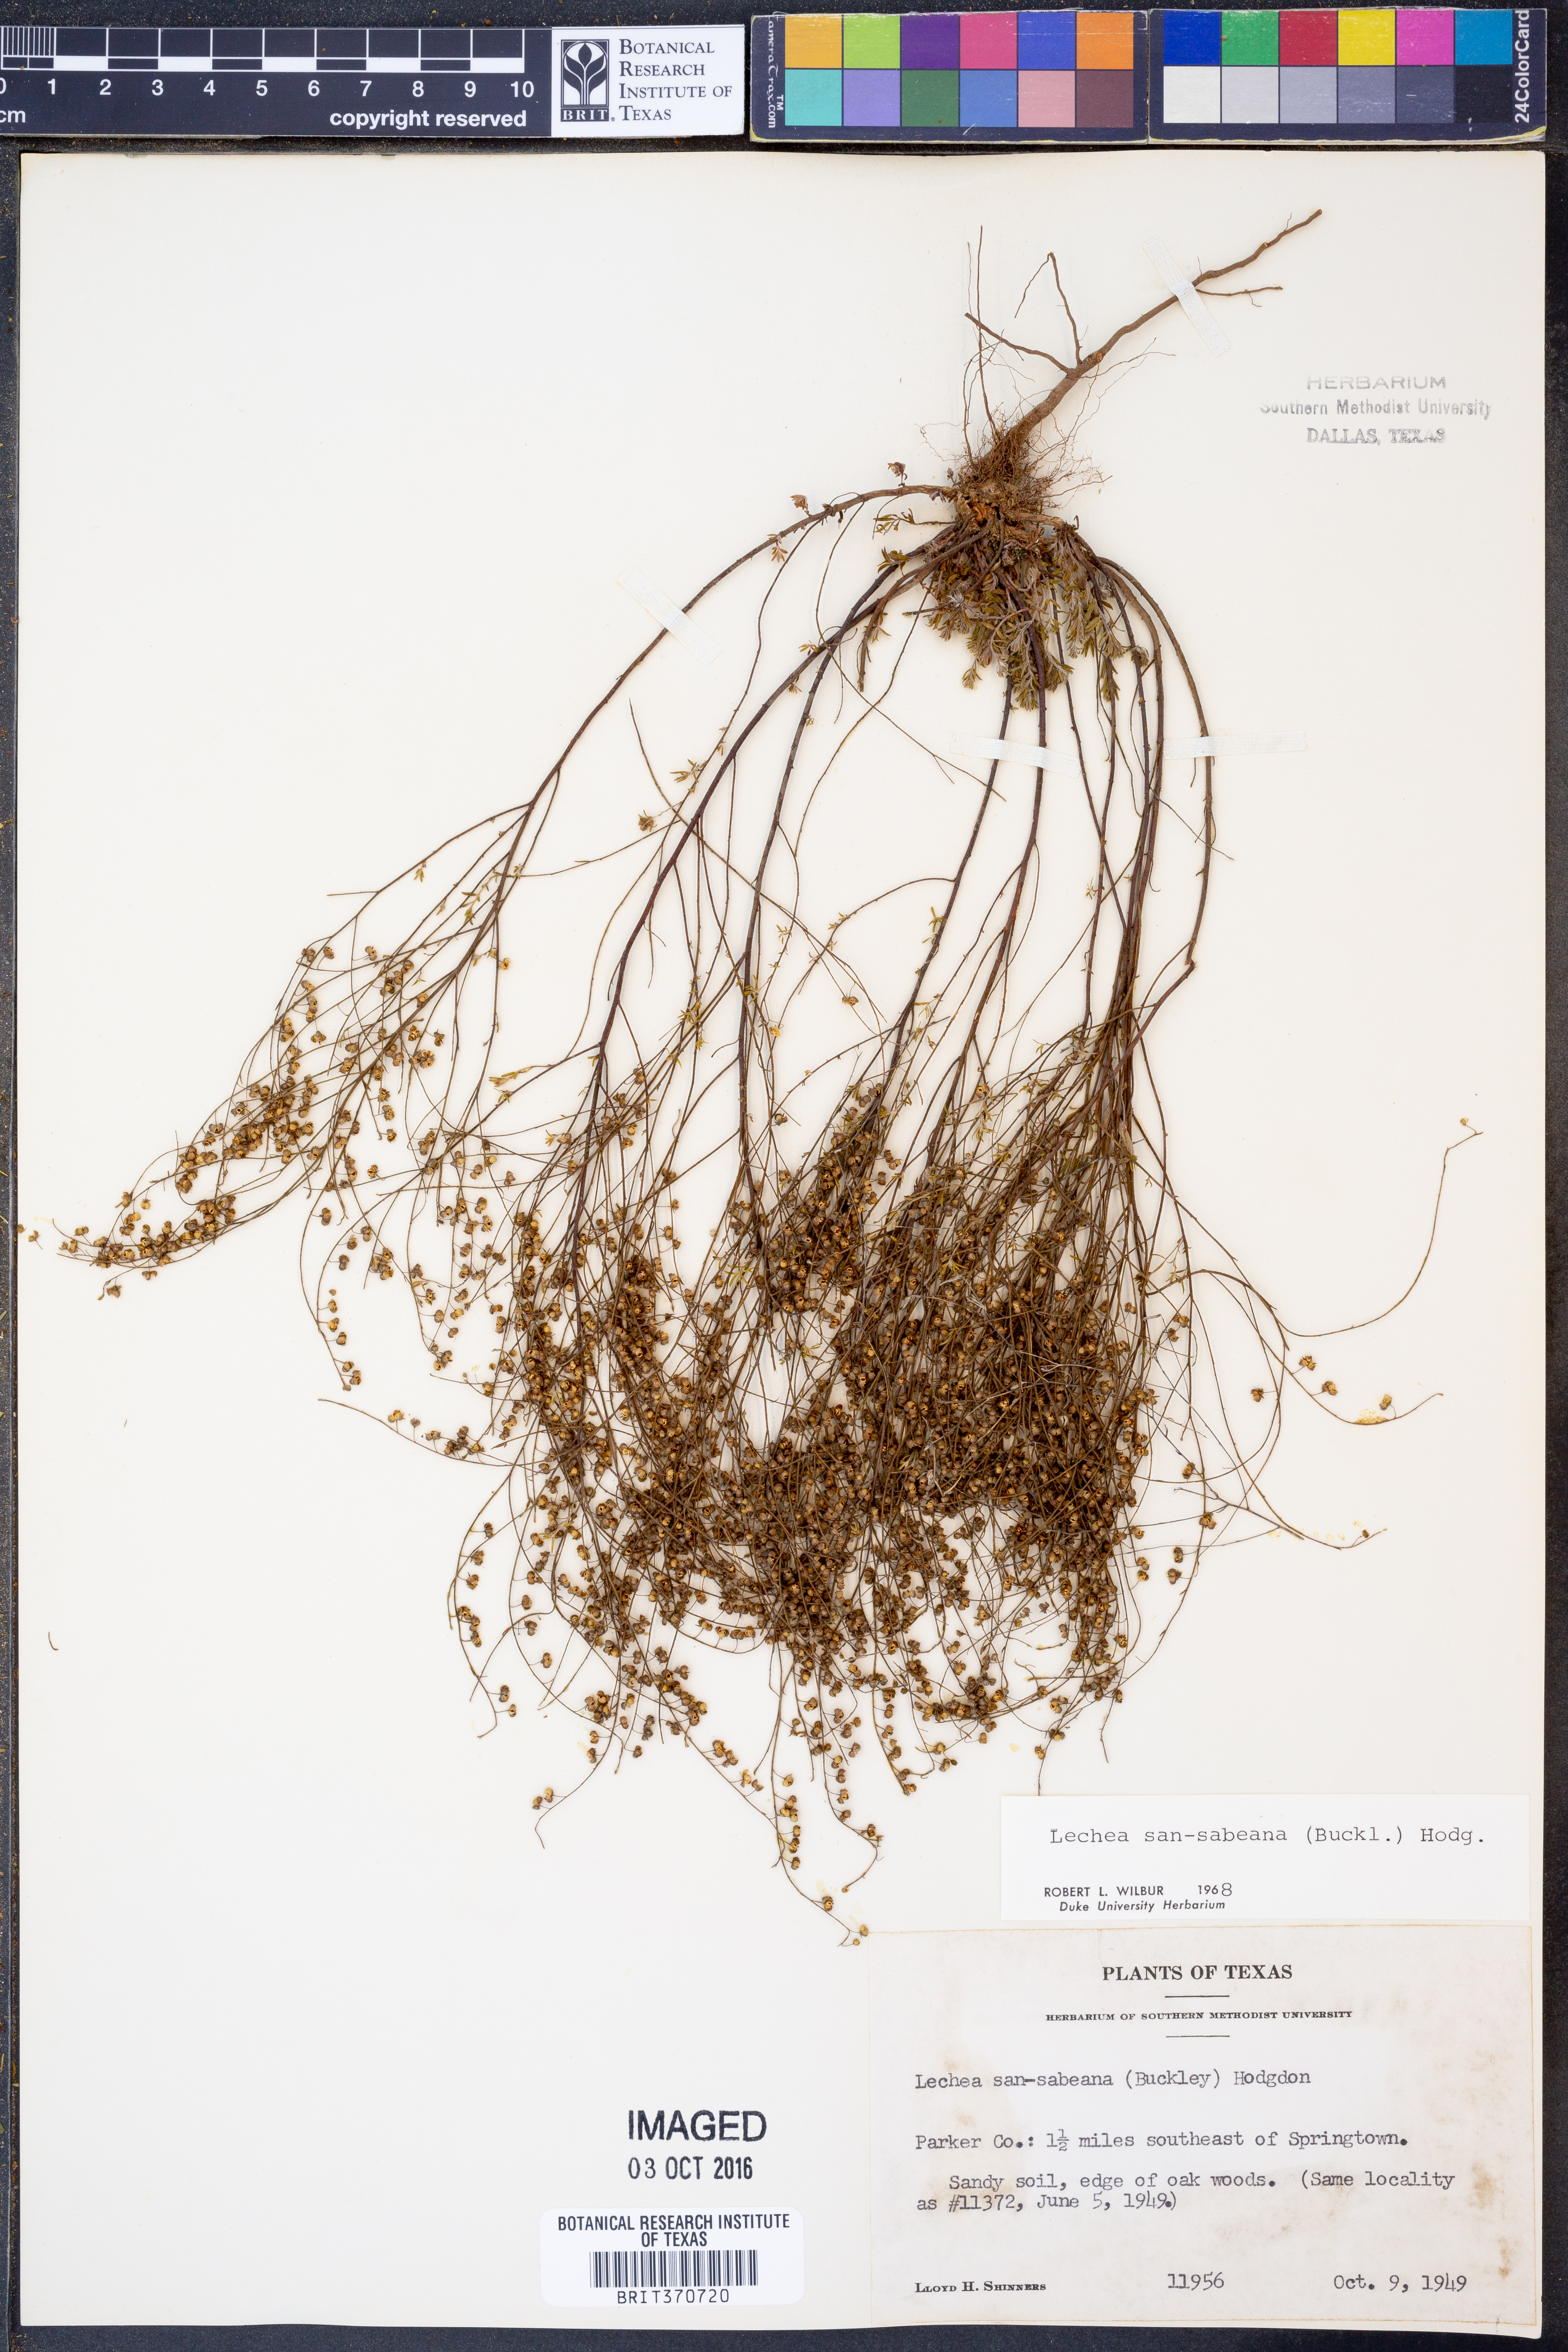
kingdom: Plantae
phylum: Tracheophyta
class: Magnoliopsida
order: Malvales
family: Cistaceae
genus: Lechea
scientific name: Lechea san-sabeana
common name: San saba pinweed
